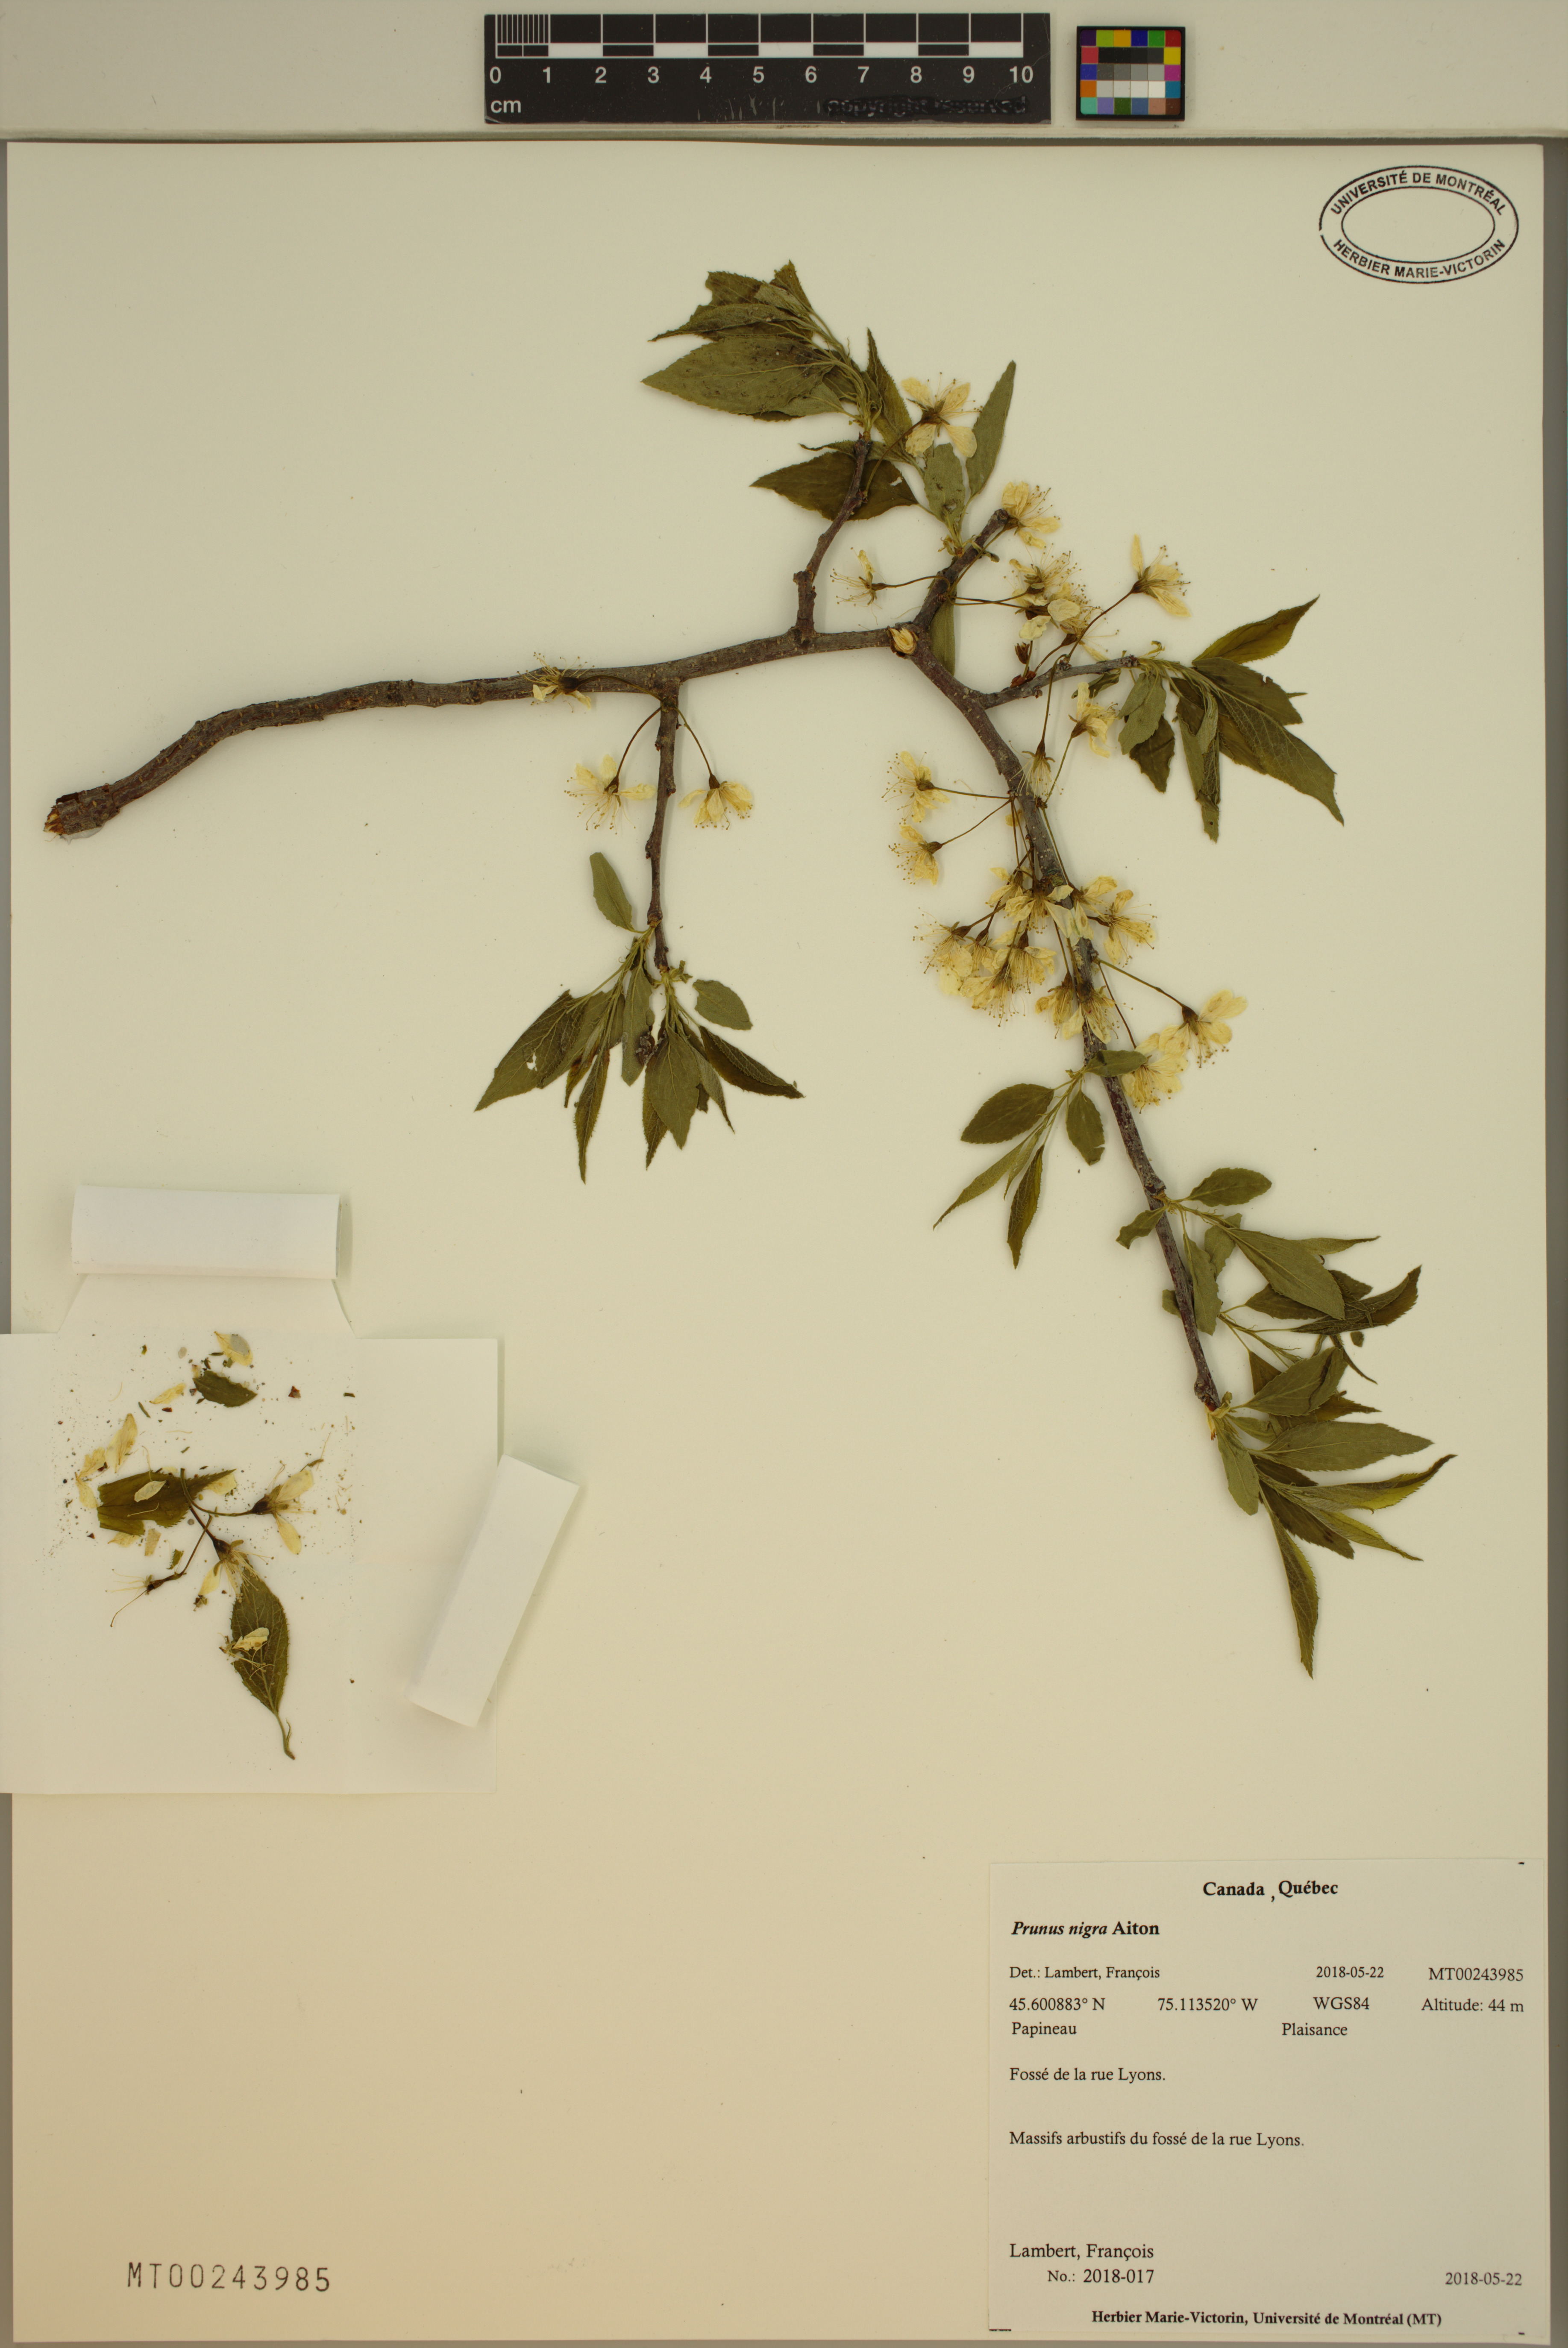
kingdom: Plantae
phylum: Tracheophyta
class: Magnoliopsida
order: Rosales
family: Rosaceae
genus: Prunus
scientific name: Prunus nigra
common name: Black plum
